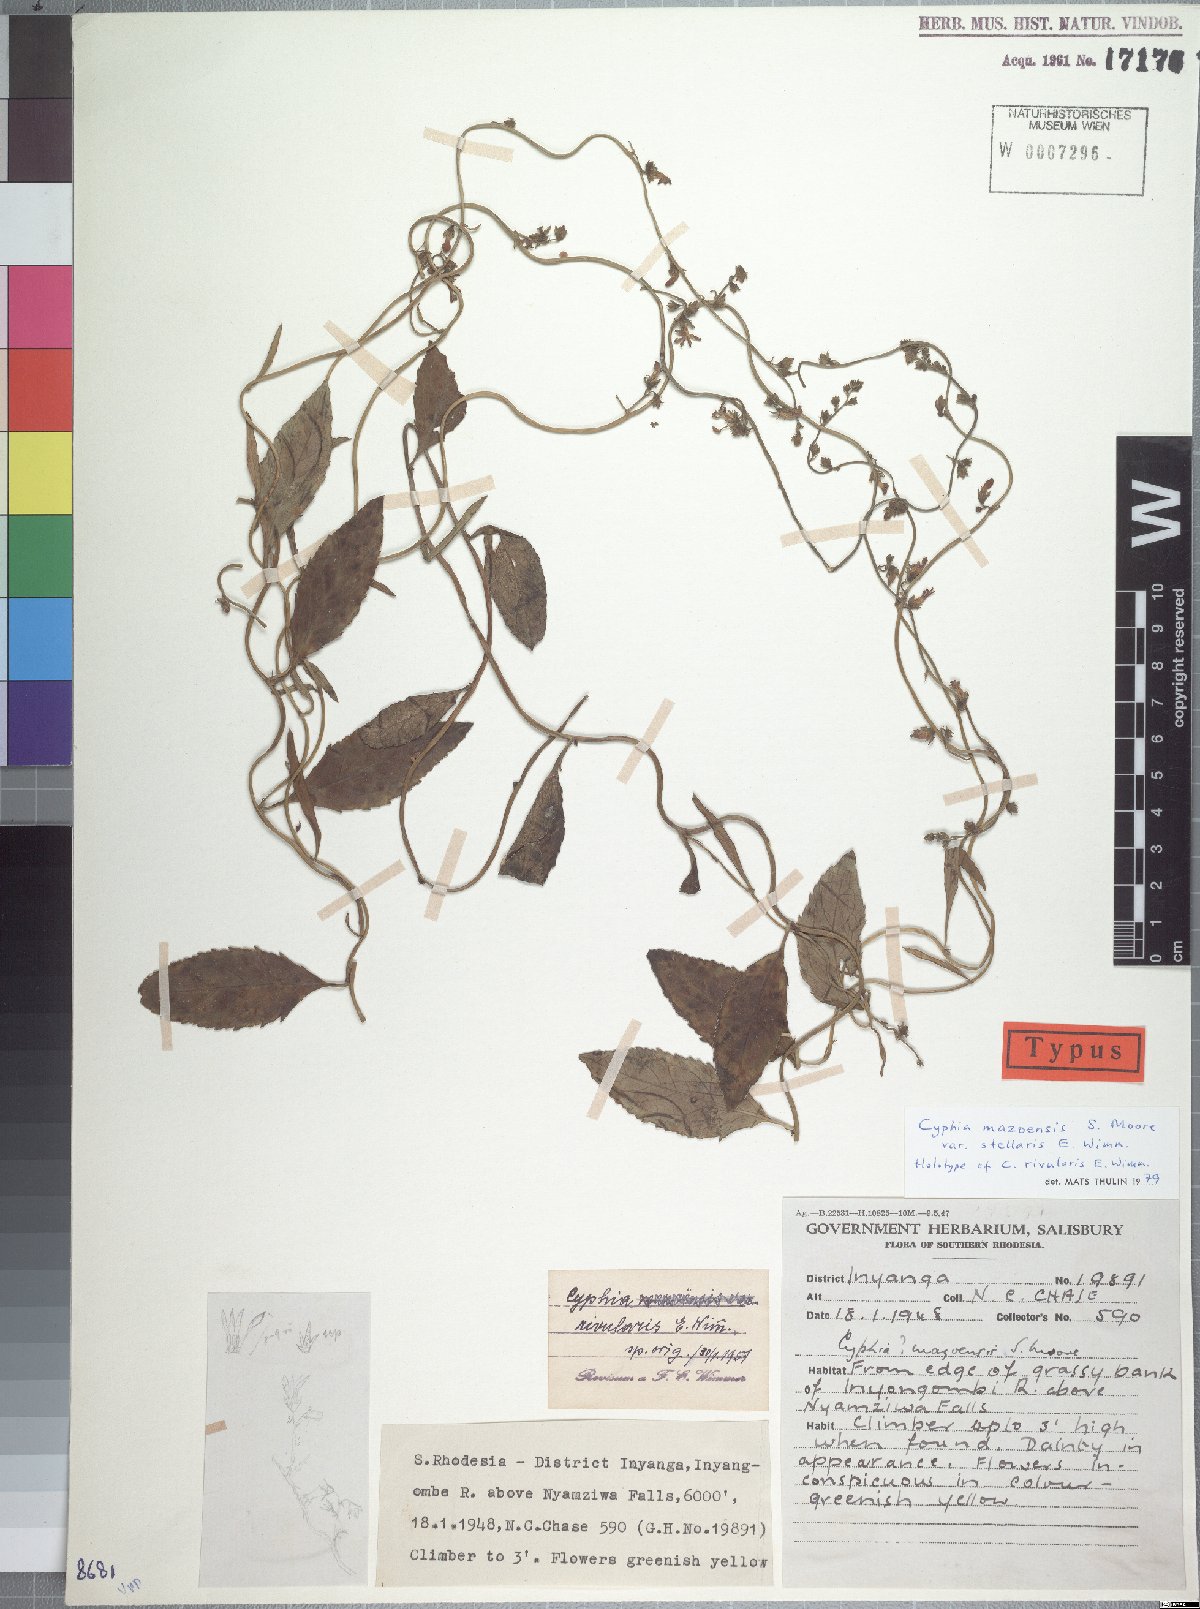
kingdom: Plantae
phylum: Tracheophyta
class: Magnoliopsida
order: Asterales
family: Campanulaceae
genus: Cyphia
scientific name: Cyphia mazoensis
